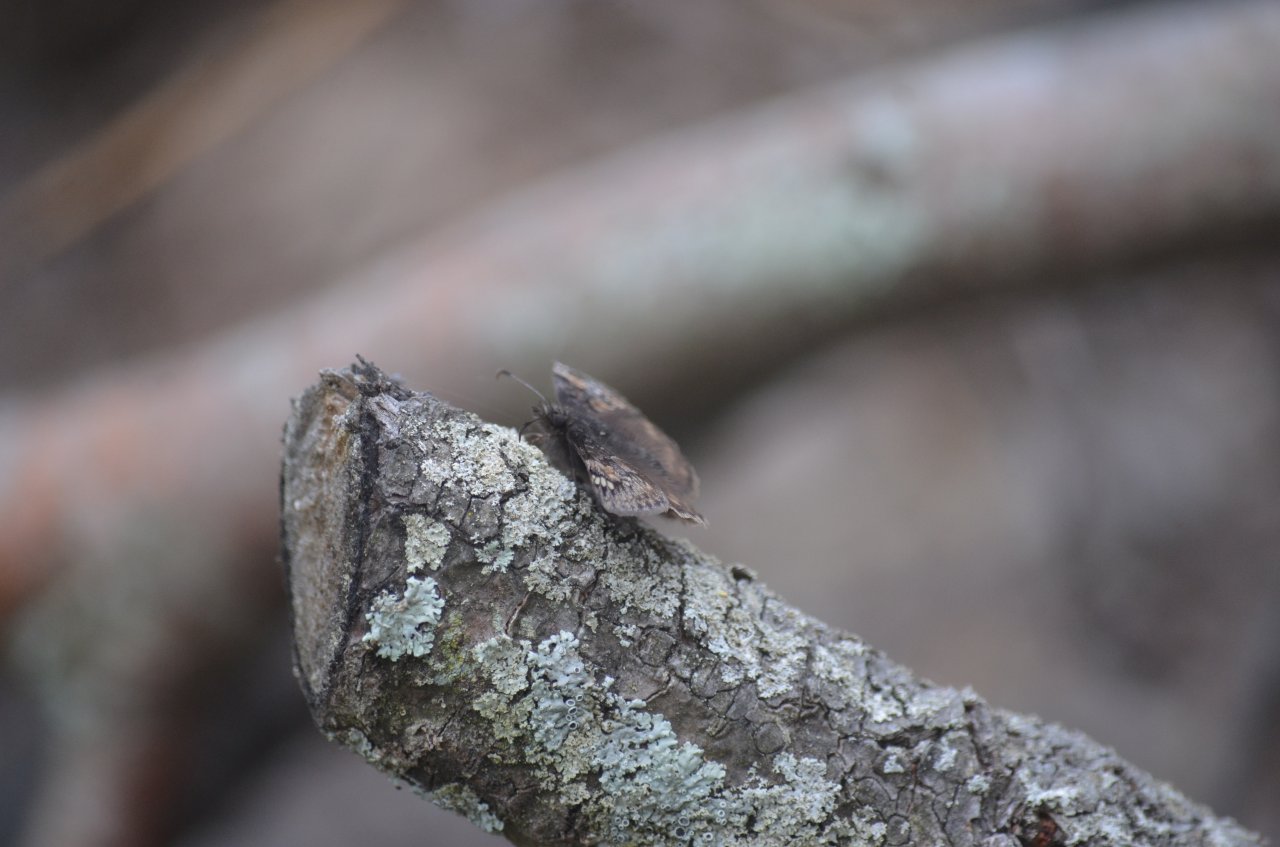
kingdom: Animalia
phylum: Arthropoda
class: Insecta
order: Lepidoptera
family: Hesperiidae
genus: Gesta
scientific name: Gesta
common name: Juvenal's Duskywing
